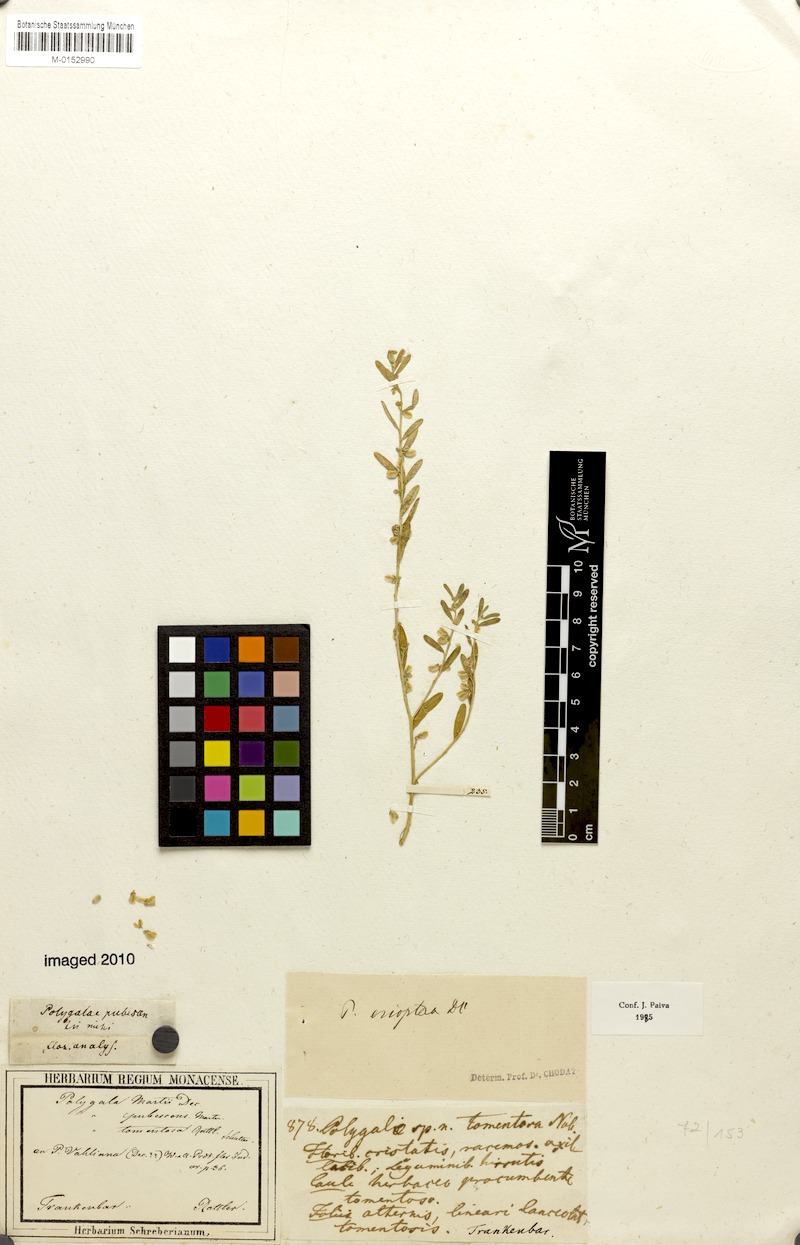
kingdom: Plantae
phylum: Tracheophyta
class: Magnoliopsida
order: Fabales
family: Polygalaceae
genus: Polygala
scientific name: Polygala erioptera
